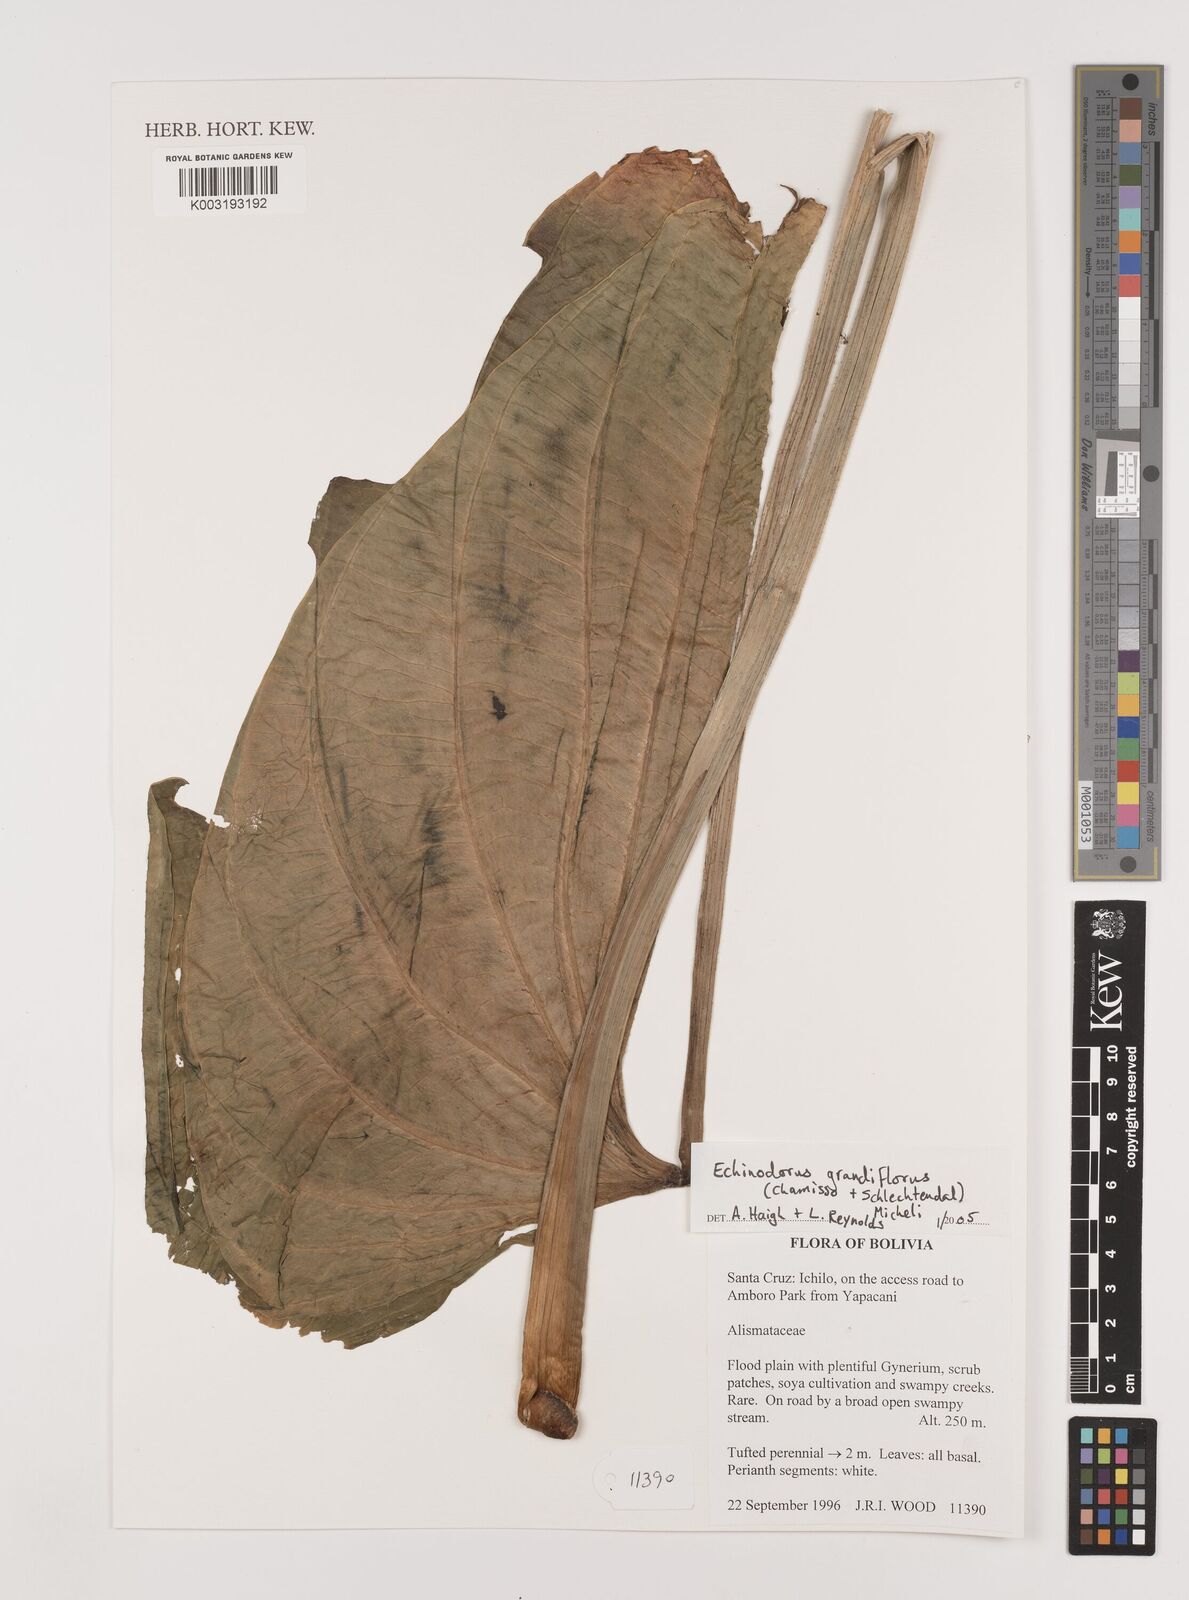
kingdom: Plantae
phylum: Tracheophyta
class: Liliopsida
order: Alismatales
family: Alismataceae
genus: Aquarius
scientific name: Aquarius grandiflorus
